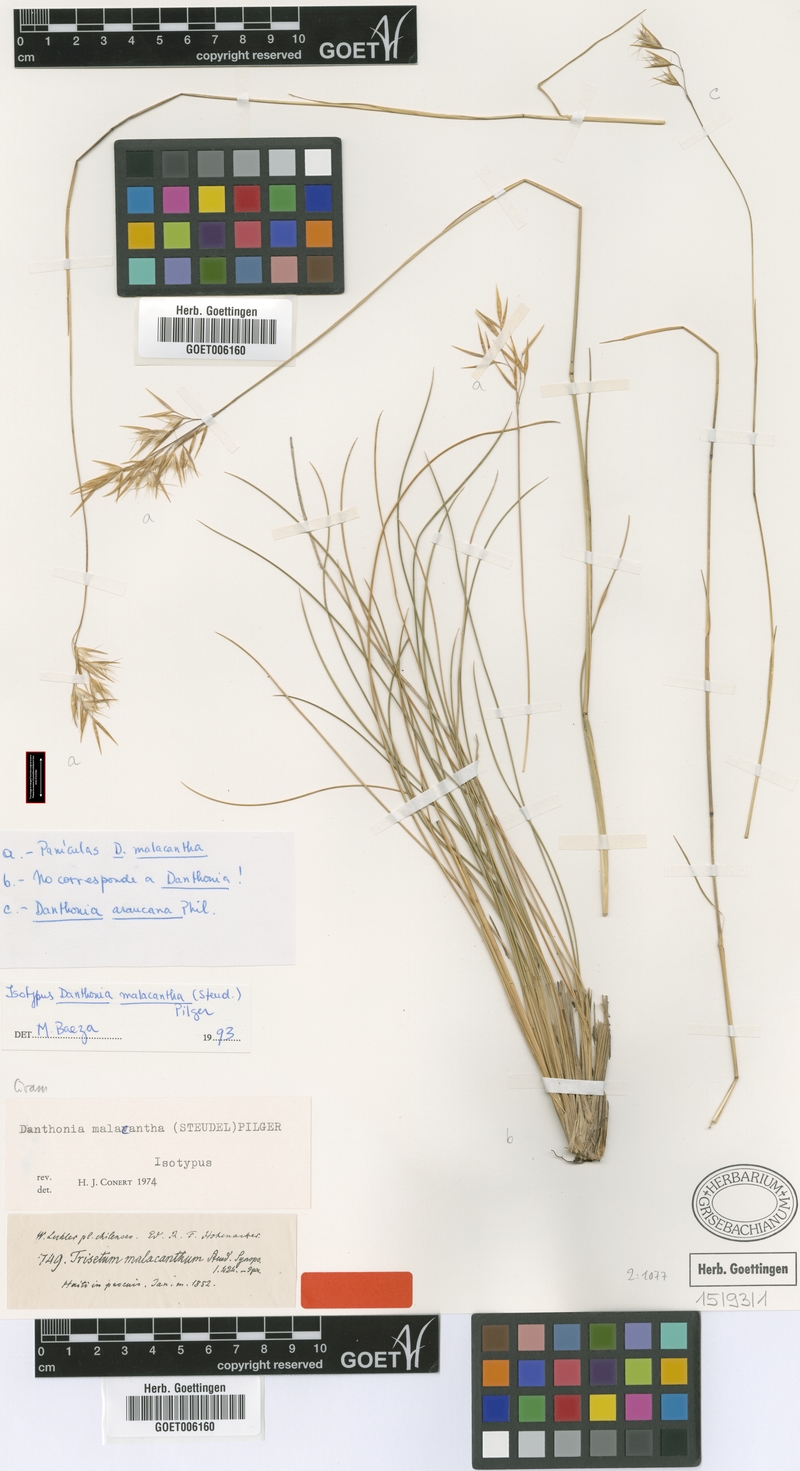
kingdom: Plantae
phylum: Tracheophyta
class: Liliopsida
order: Poales
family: Poaceae
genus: Danthonia
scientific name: Danthonia malacantha
